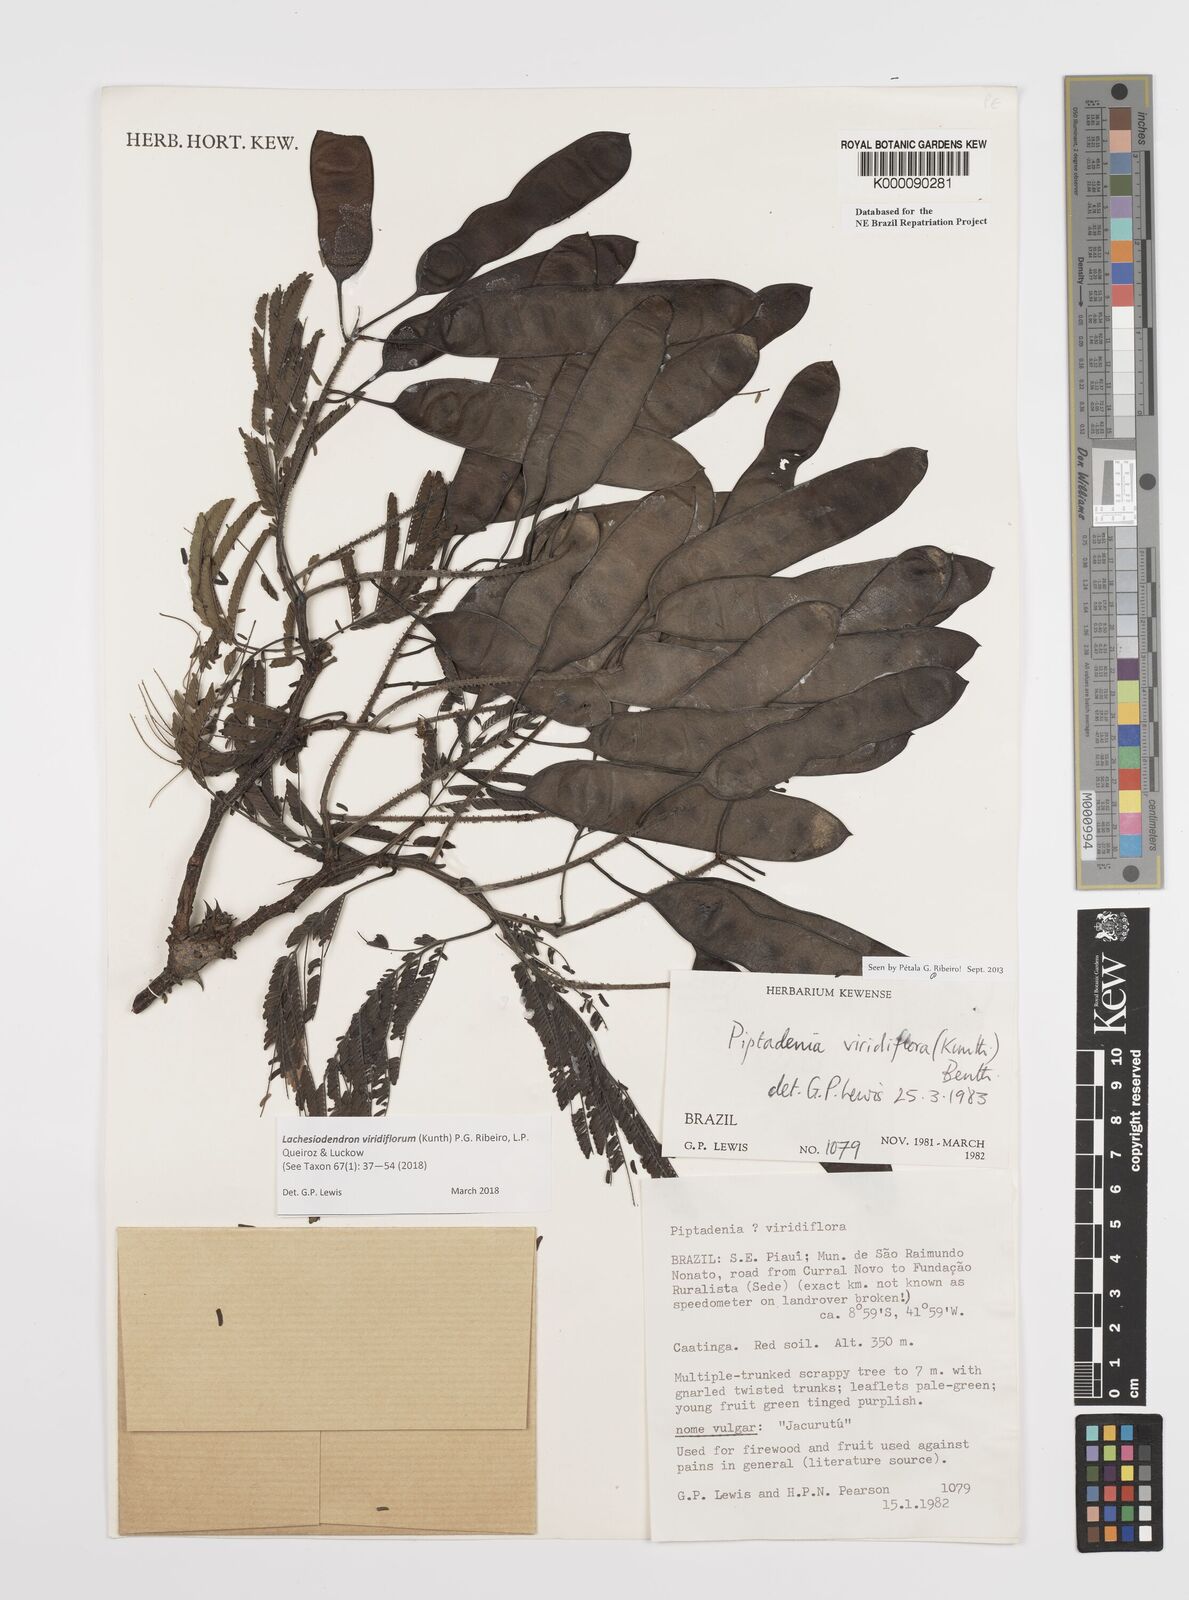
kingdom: Plantae
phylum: Tracheophyta
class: Magnoliopsida
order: Fabales
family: Fabaceae
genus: Lachesiodendron
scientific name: Lachesiodendron viridiflorum
